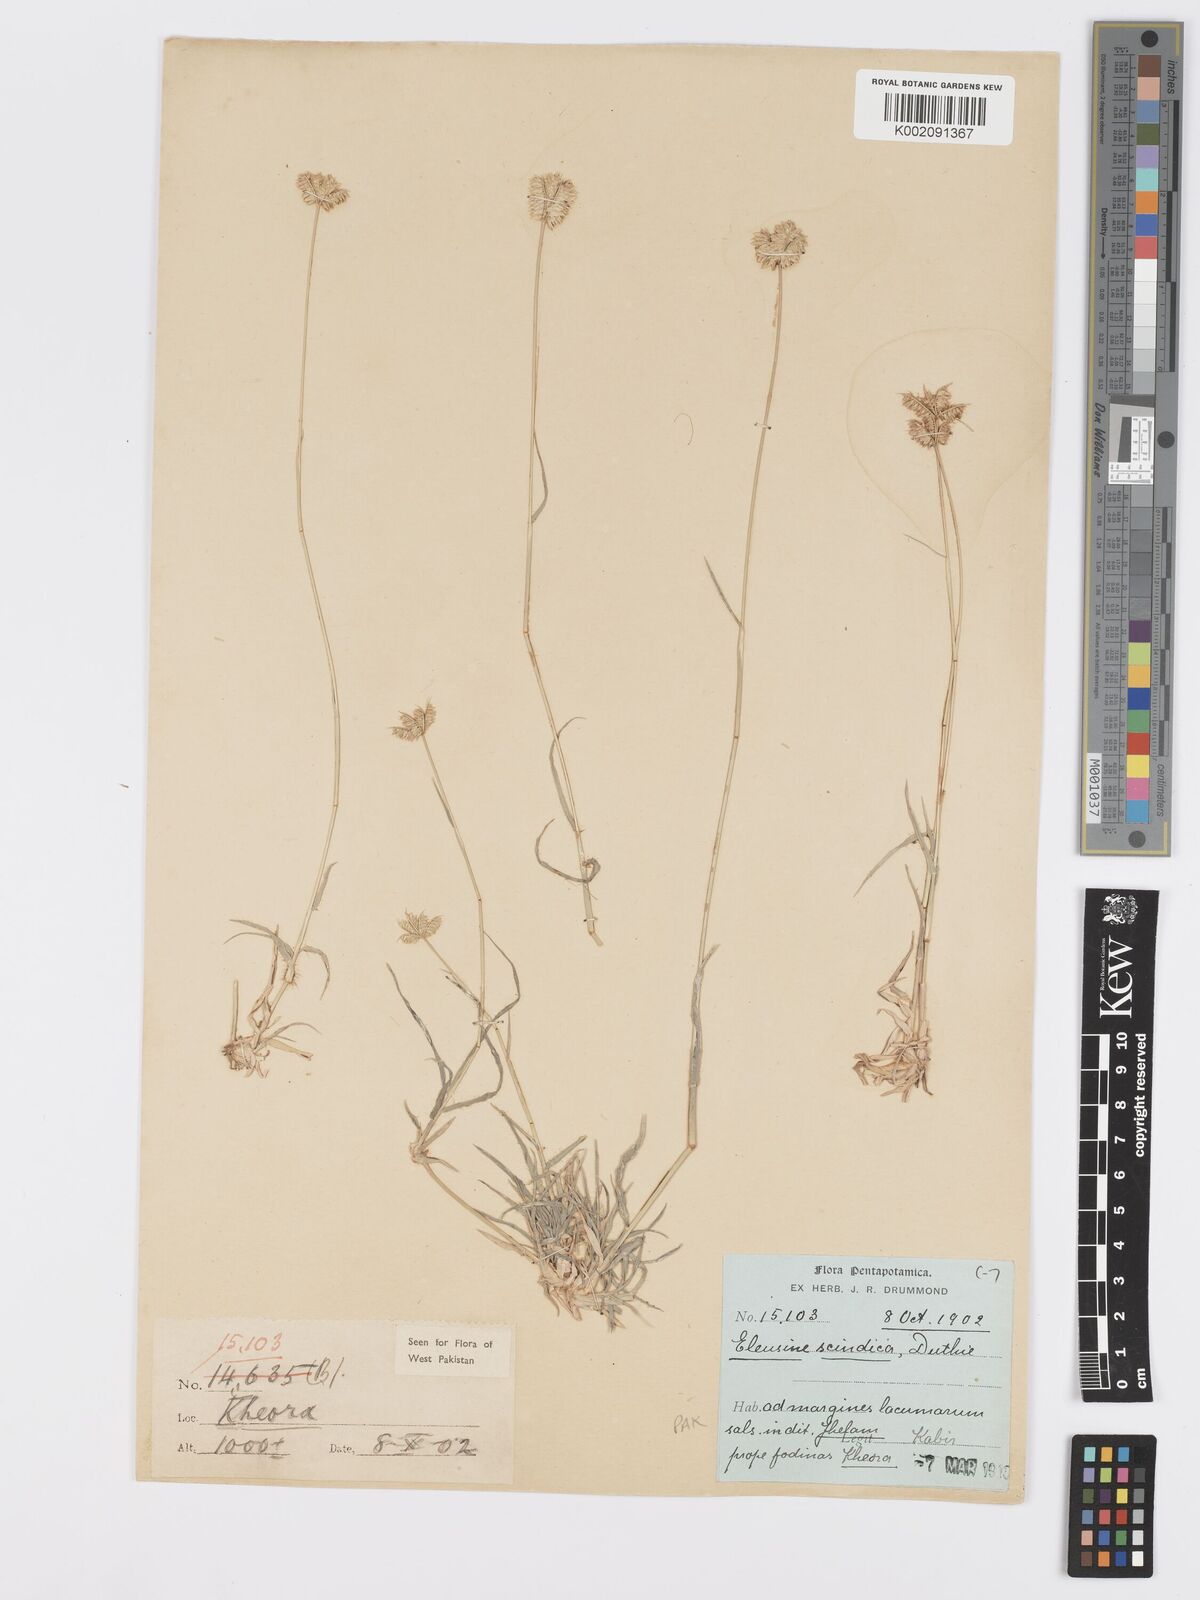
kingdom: Plantae
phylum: Tracheophyta
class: Liliopsida
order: Poales
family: Poaceae
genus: Dactyloctenium
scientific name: Dactyloctenium scindicum
